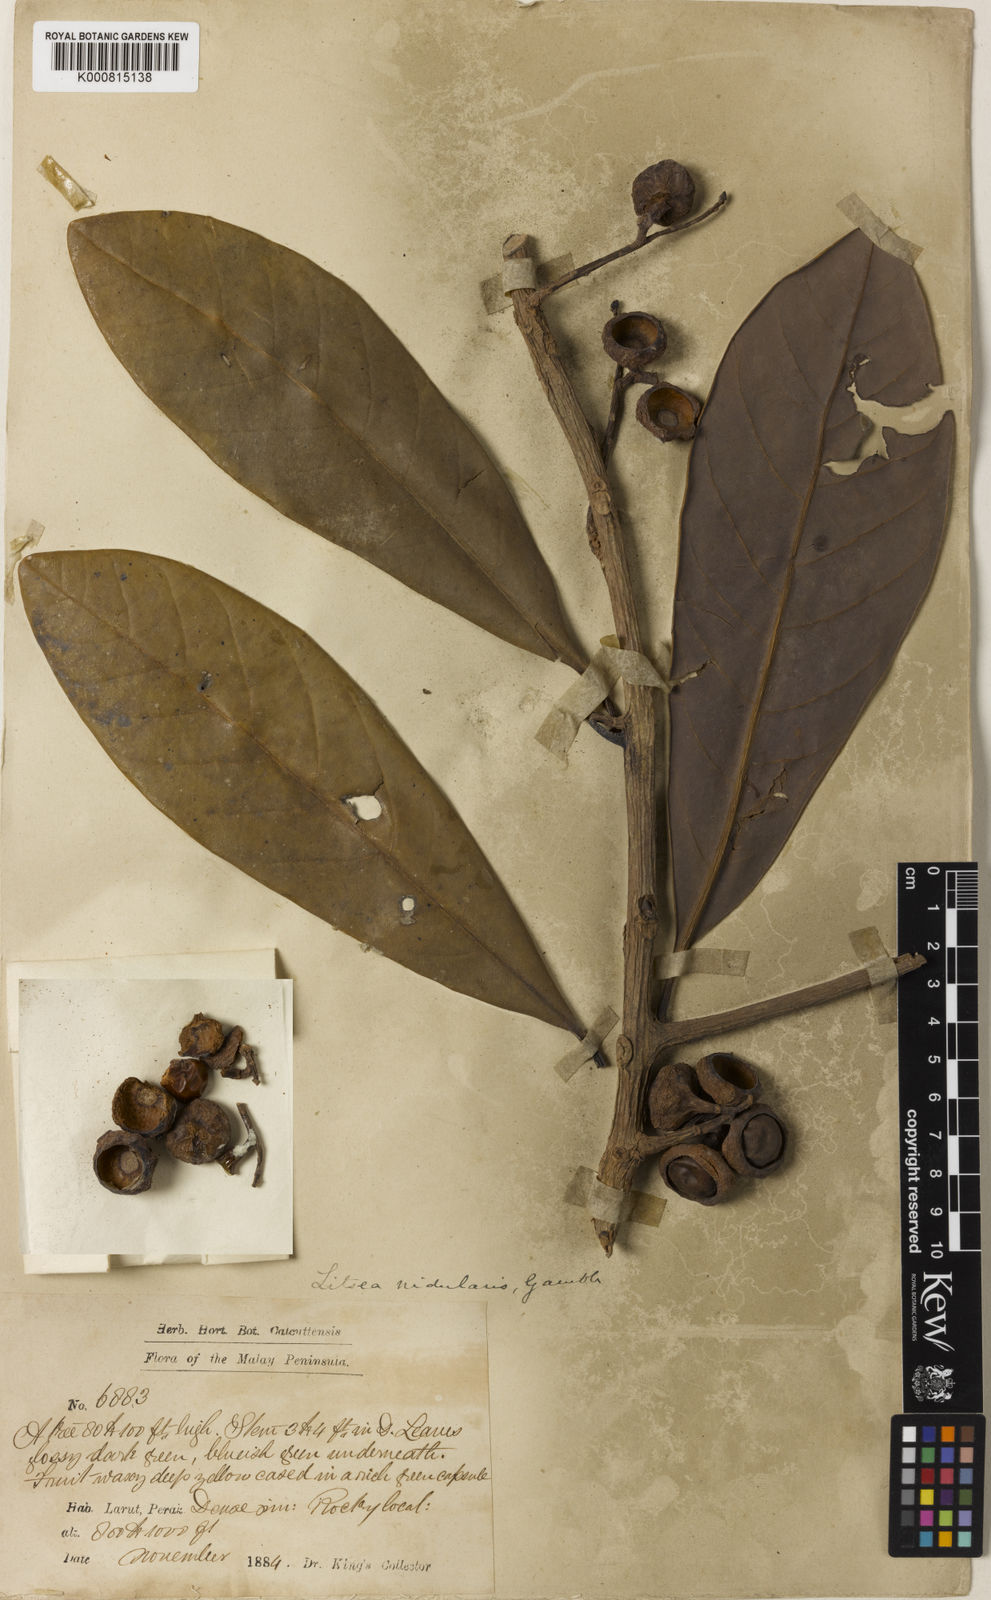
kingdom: Plantae
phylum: Tracheophyta
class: Magnoliopsida
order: Laurales
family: Lauraceae
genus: Litsea
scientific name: Litsea costalis
